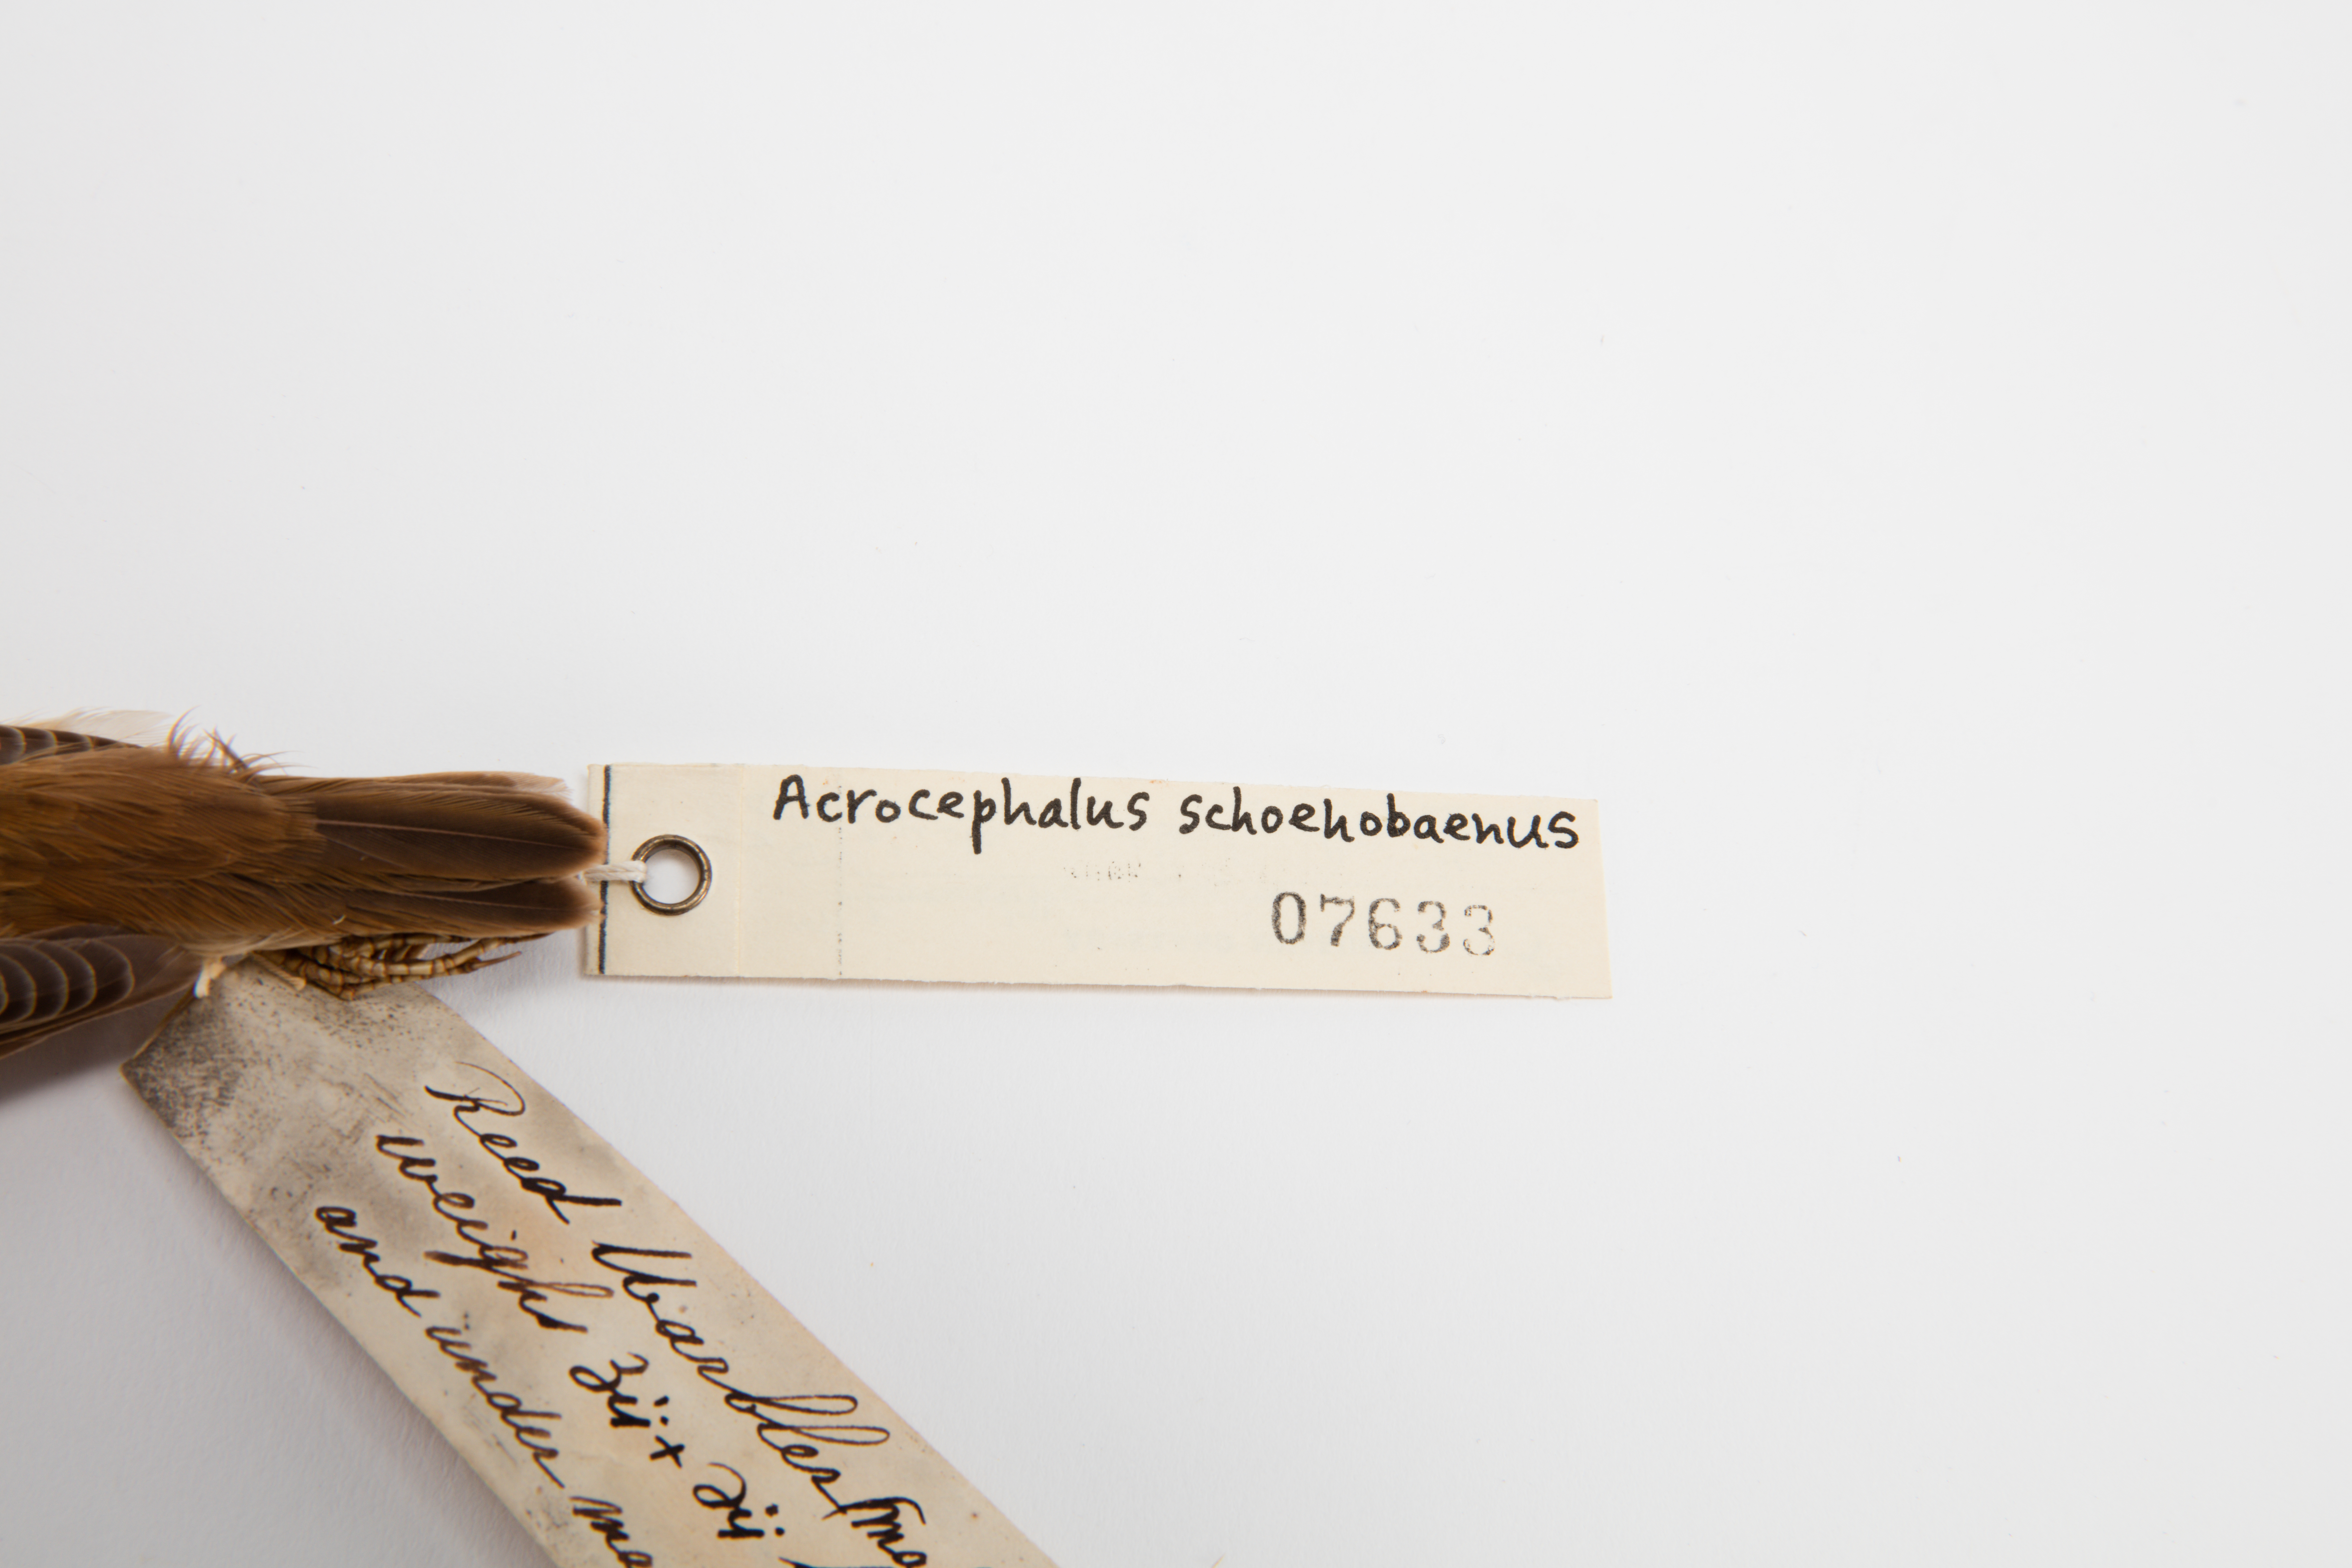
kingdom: Animalia
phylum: Chordata
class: Aves
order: Passeriformes
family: Acrocephalidae
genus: Acrocephalus
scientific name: Acrocephalus schoenobaenus
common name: Sedge warbler
